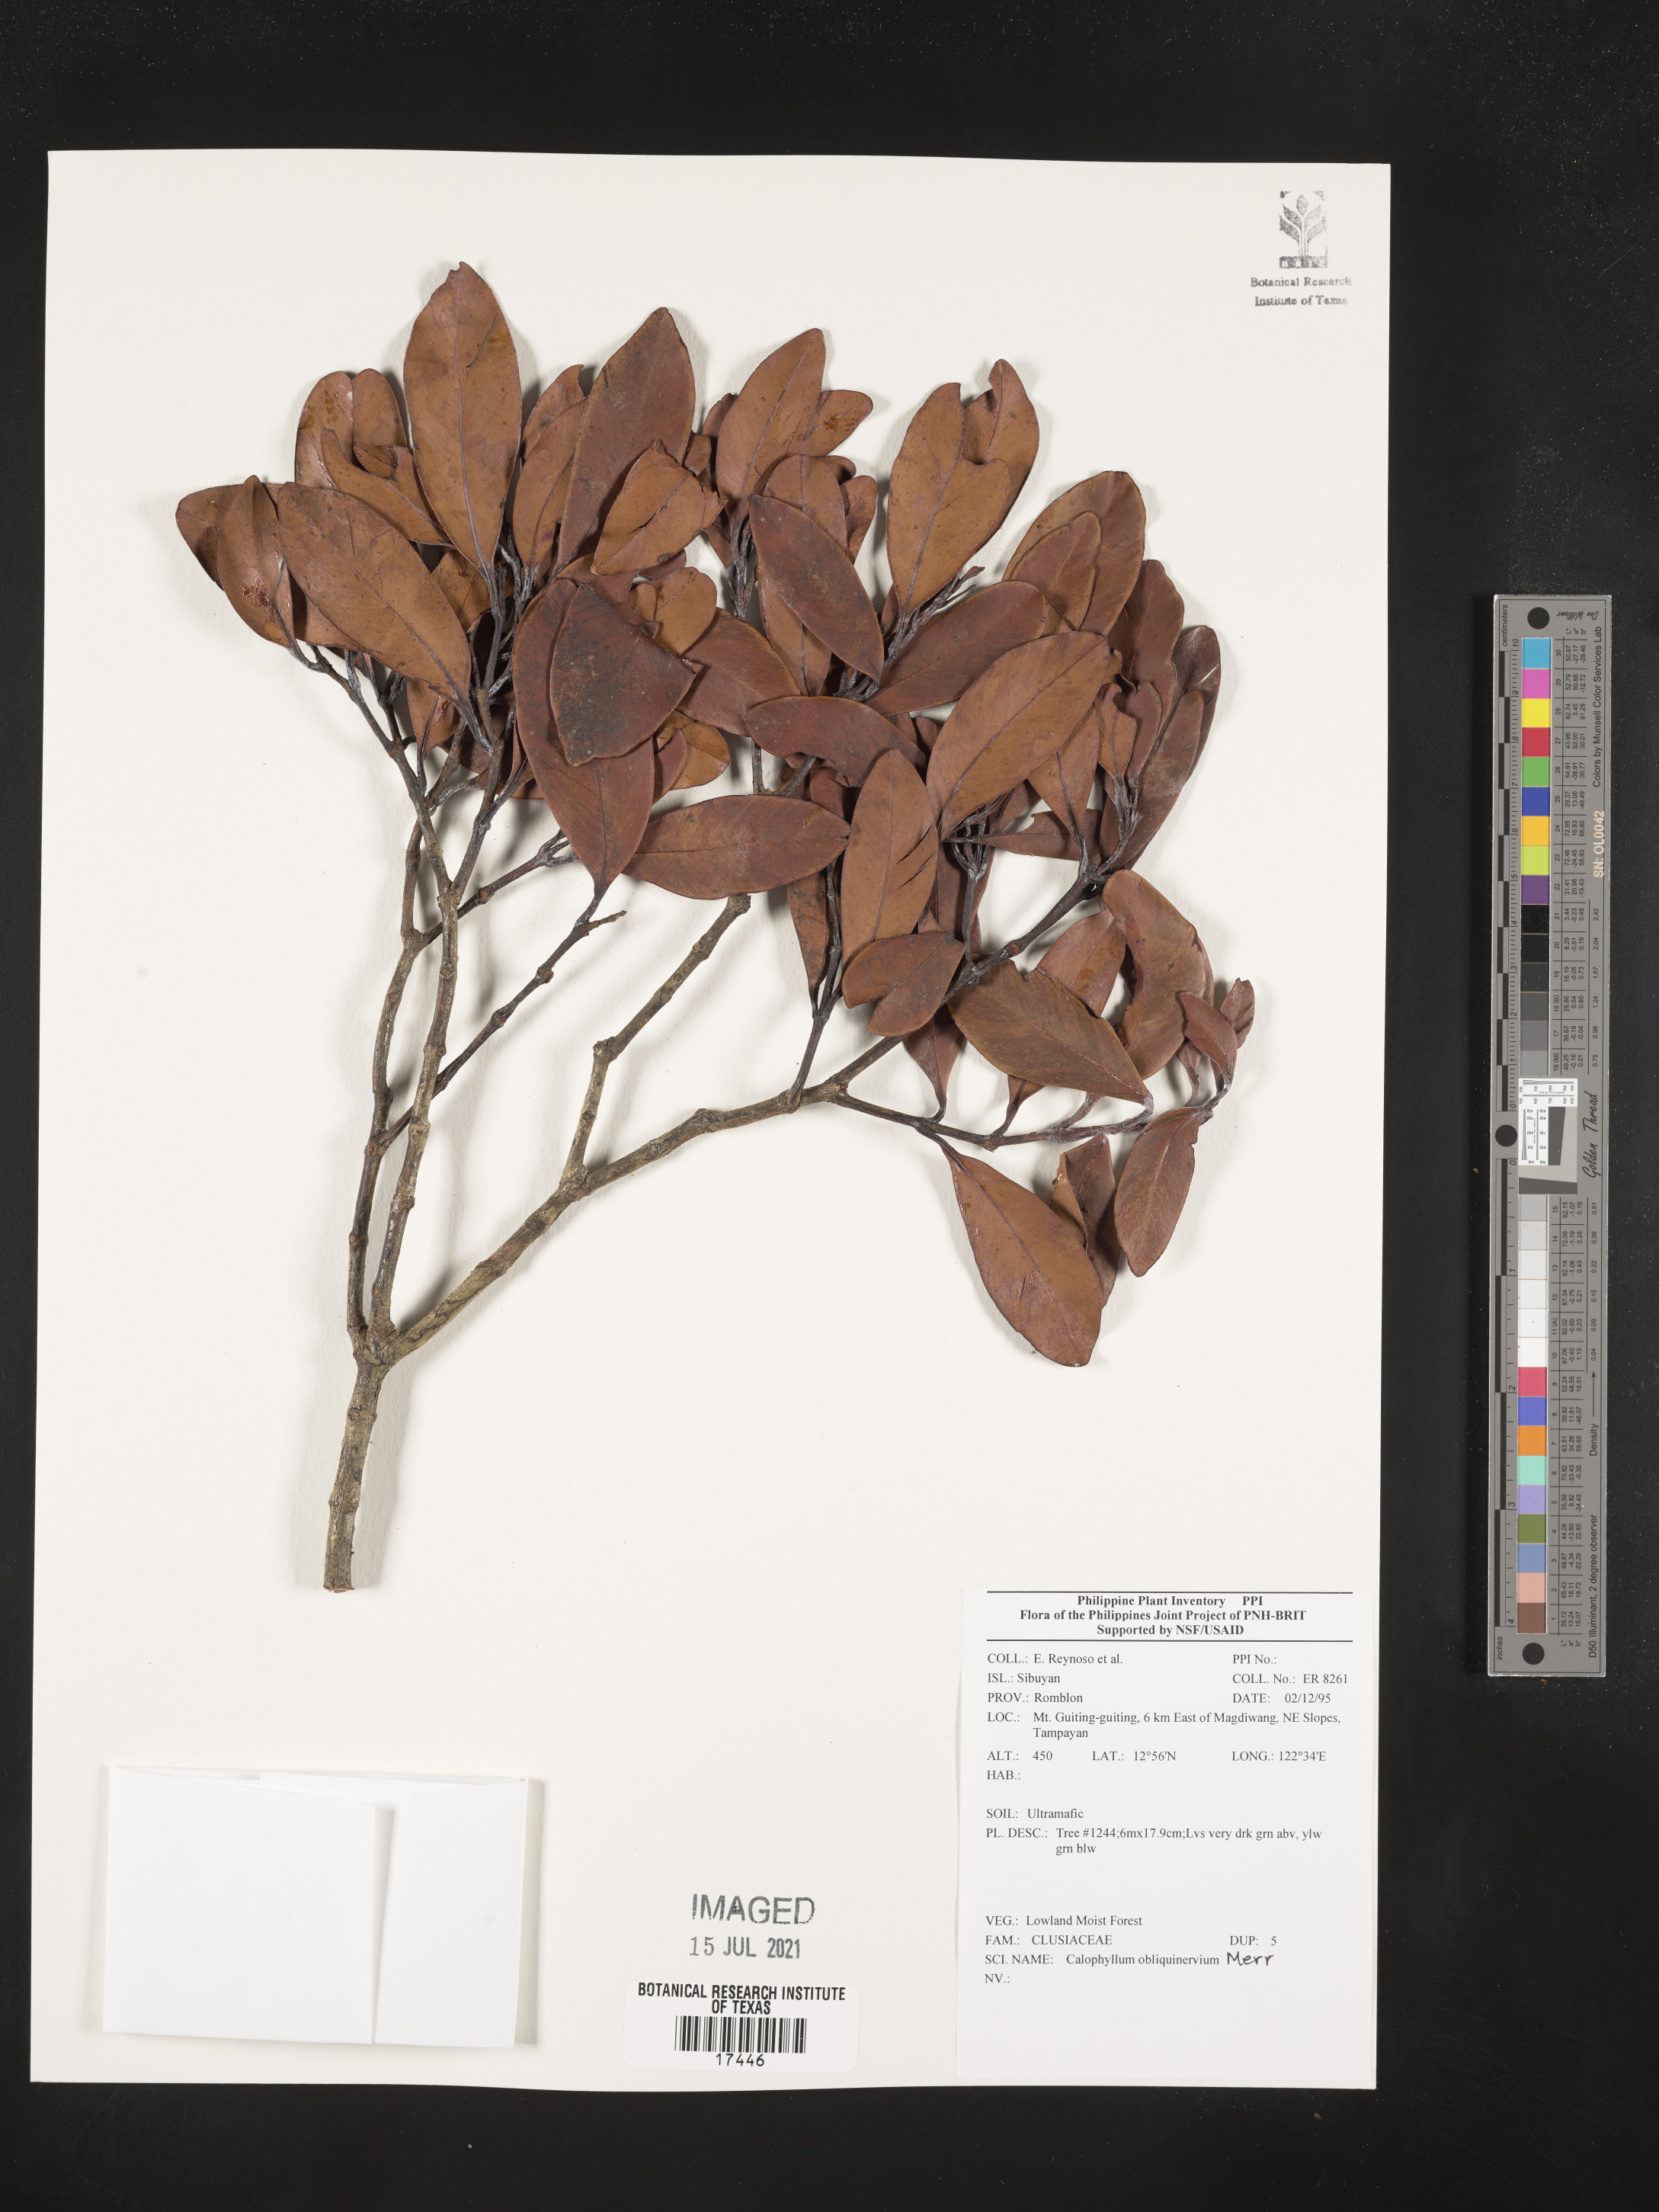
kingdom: Plantae
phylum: Tracheophyta
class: Magnoliopsida
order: Malpighiales
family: Calophyllaceae
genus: Calophyllum
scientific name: Calophyllum obliquinervium
